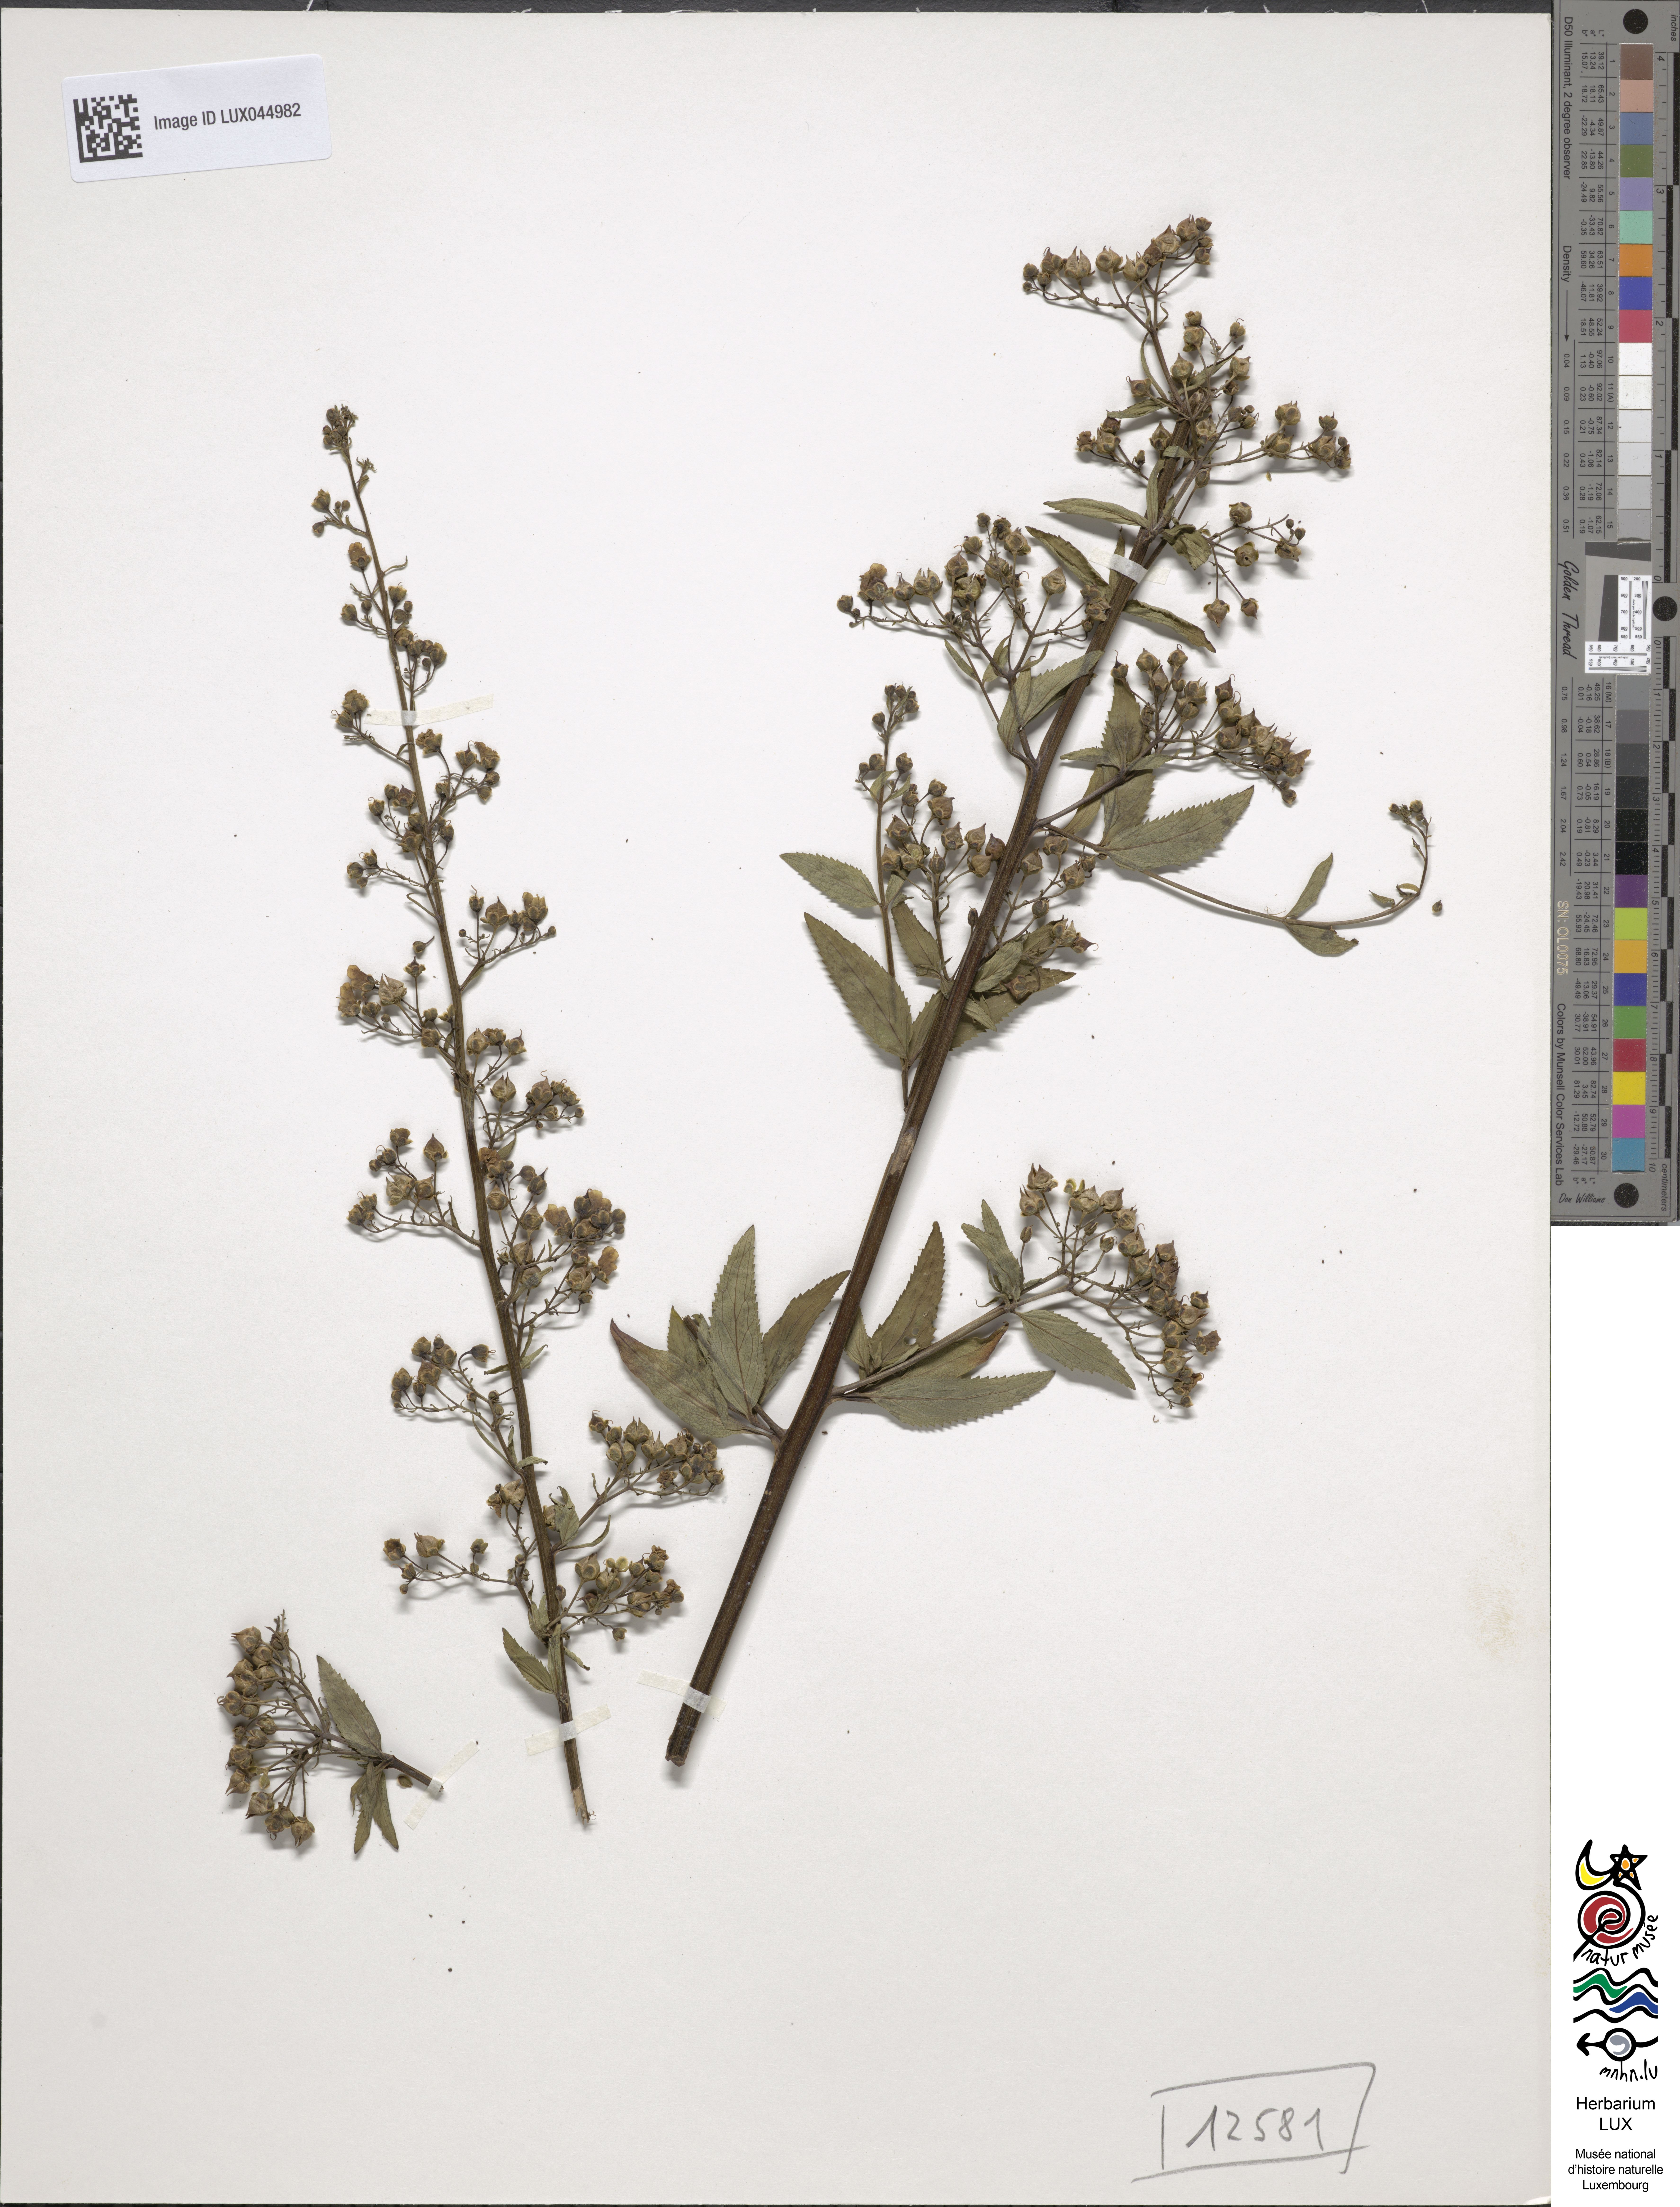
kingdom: Plantae
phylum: Tracheophyta
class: Magnoliopsida
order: Lamiales
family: Scrophulariaceae
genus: Scrophularia
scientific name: Scrophularia umbrosa
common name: Green figwort
